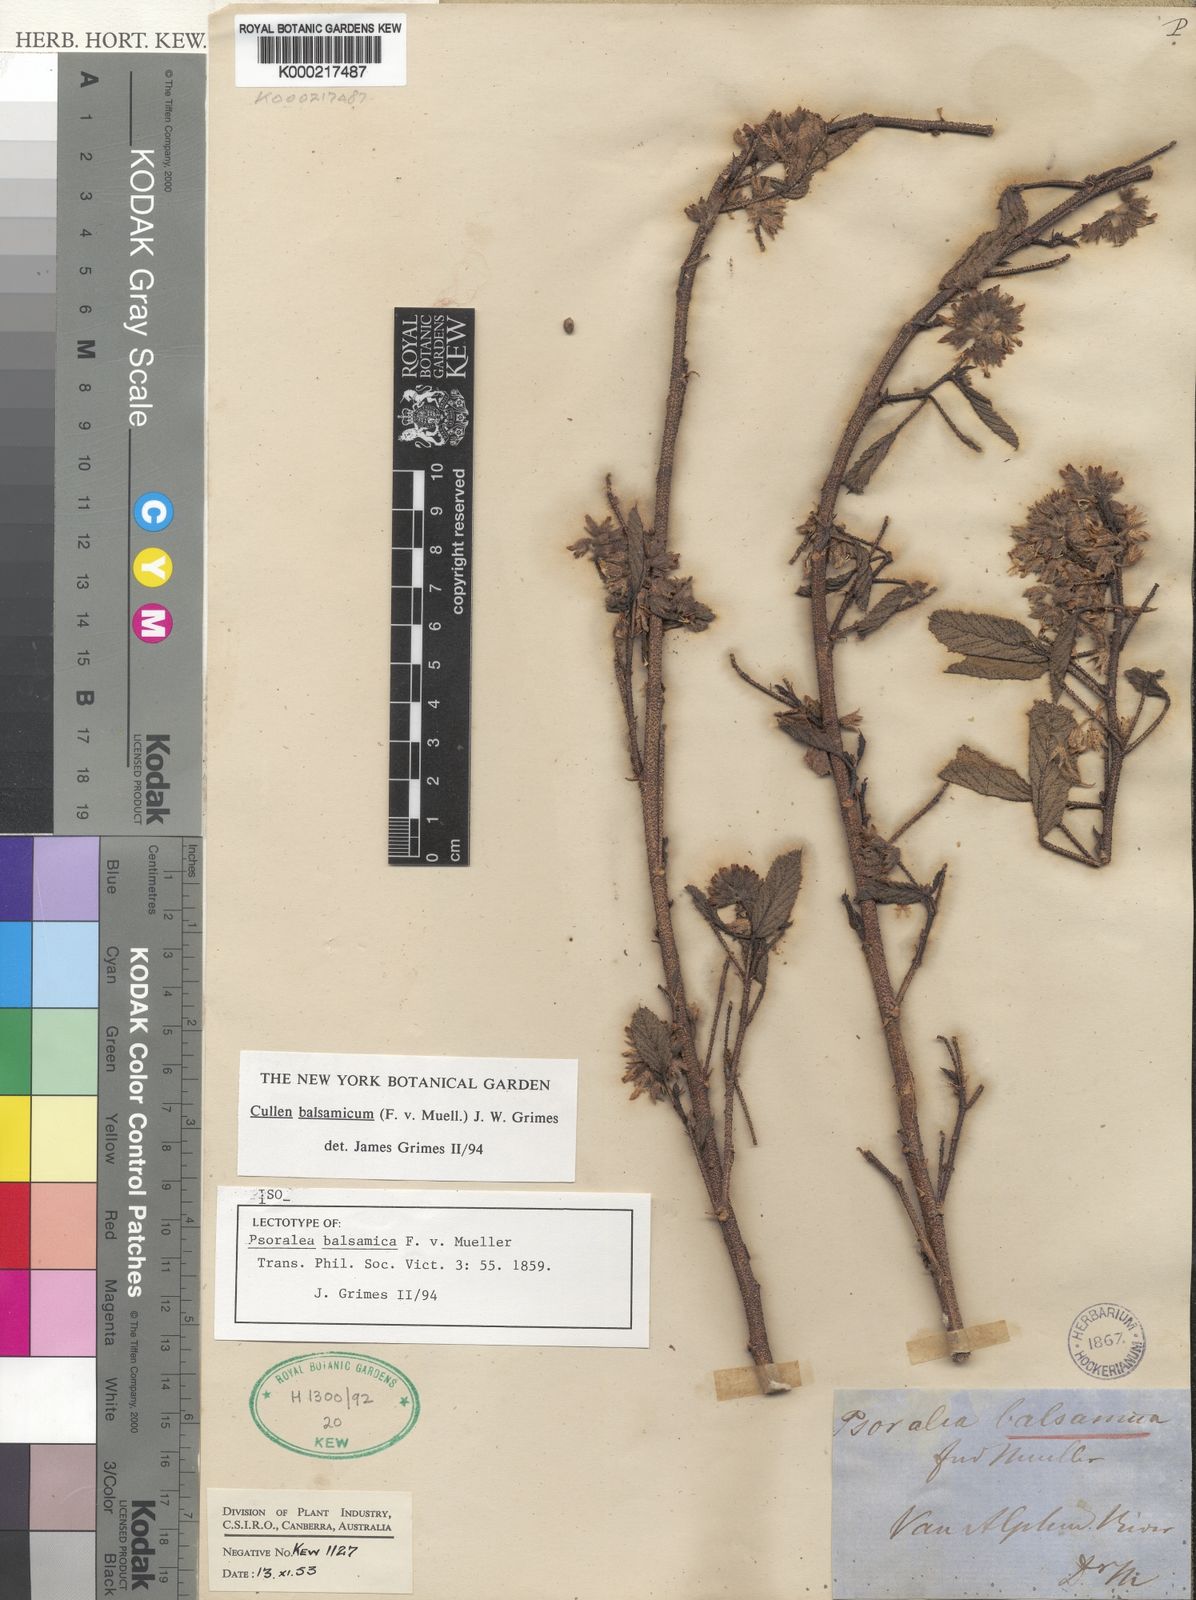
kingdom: Plantae
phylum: Tracheophyta
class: Magnoliopsida
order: Fabales
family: Fabaceae
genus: Cullen
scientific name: Cullen balsamicum
